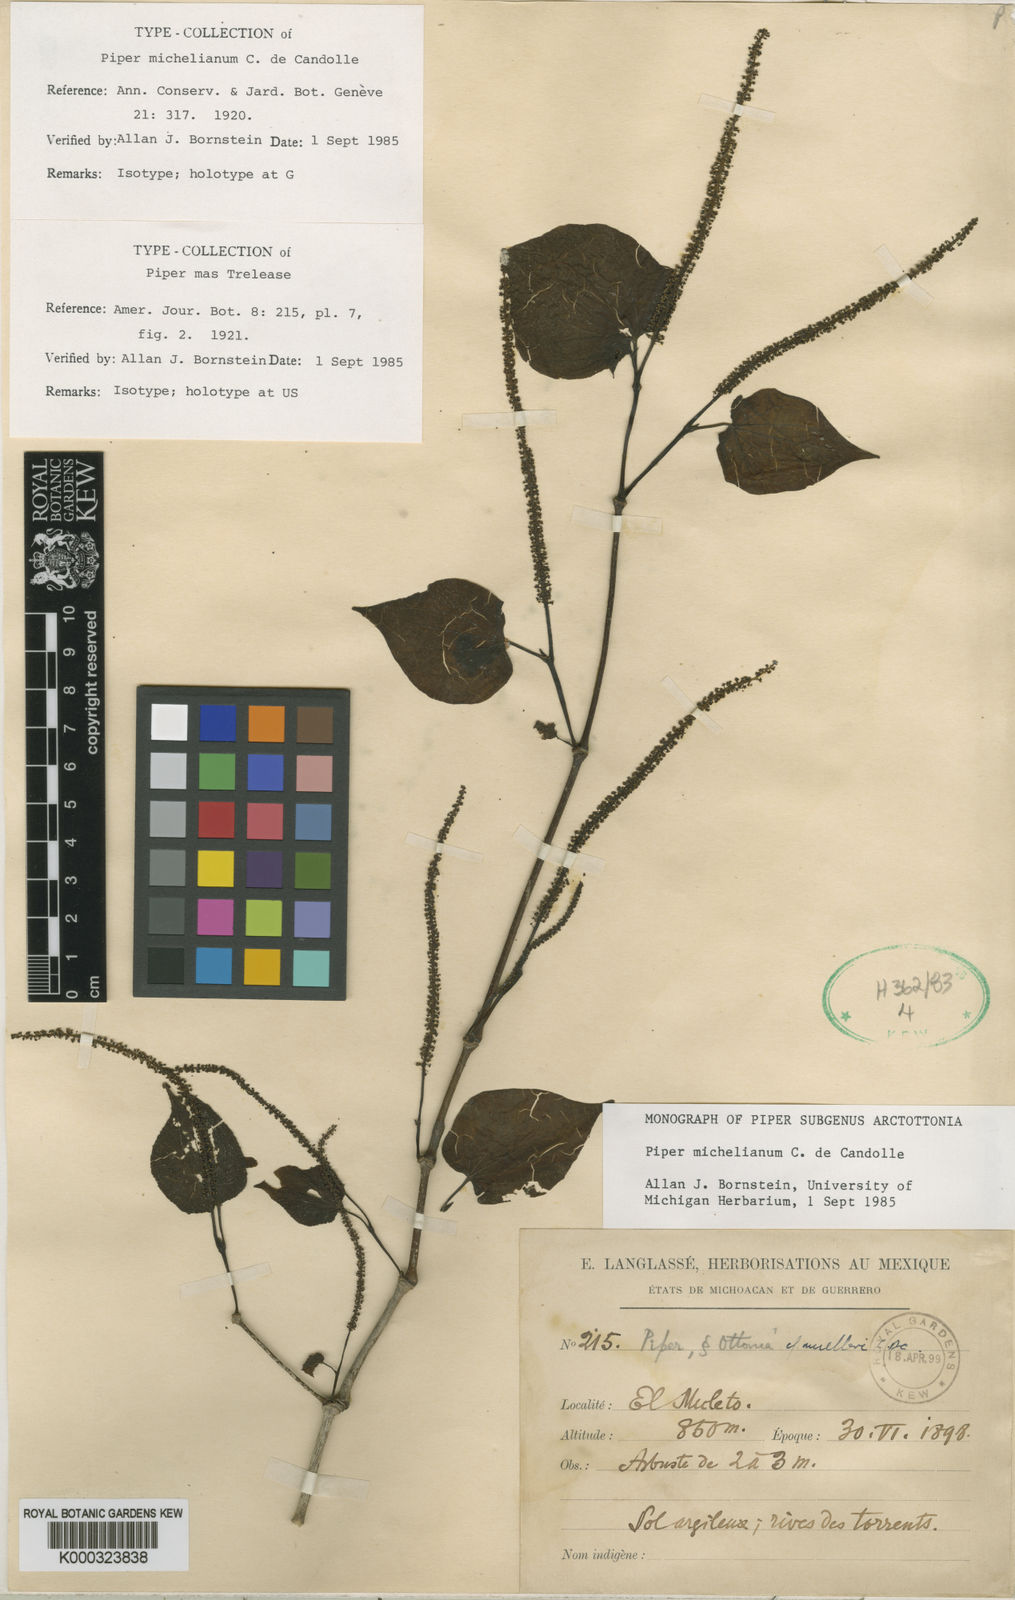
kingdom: Plantae
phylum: Tracheophyta
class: Magnoliopsida
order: Piperales
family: Piperaceae
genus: Piper
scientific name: Piper michelianum
